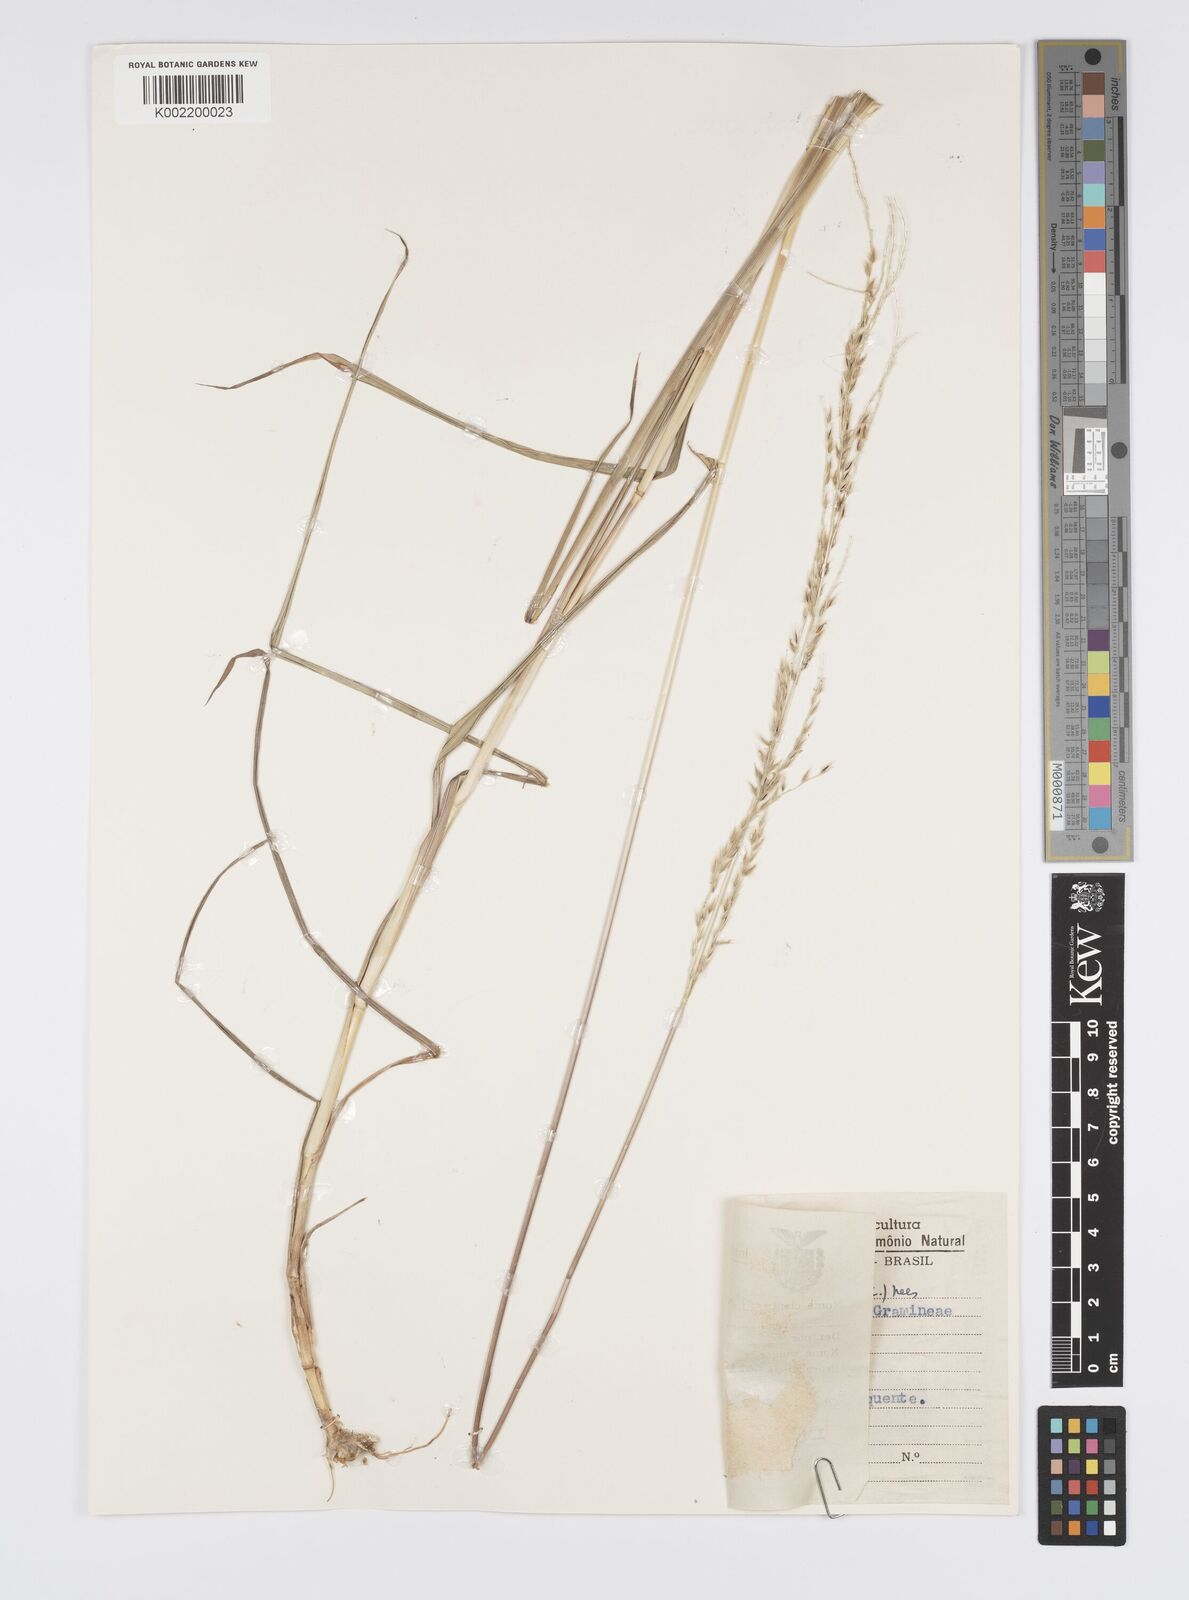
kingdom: Plantae
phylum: Tracheophyta
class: Liliopsida
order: Poales
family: Poaceae
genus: Digitaria
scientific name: Digitaria insularis
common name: Sourgrass
